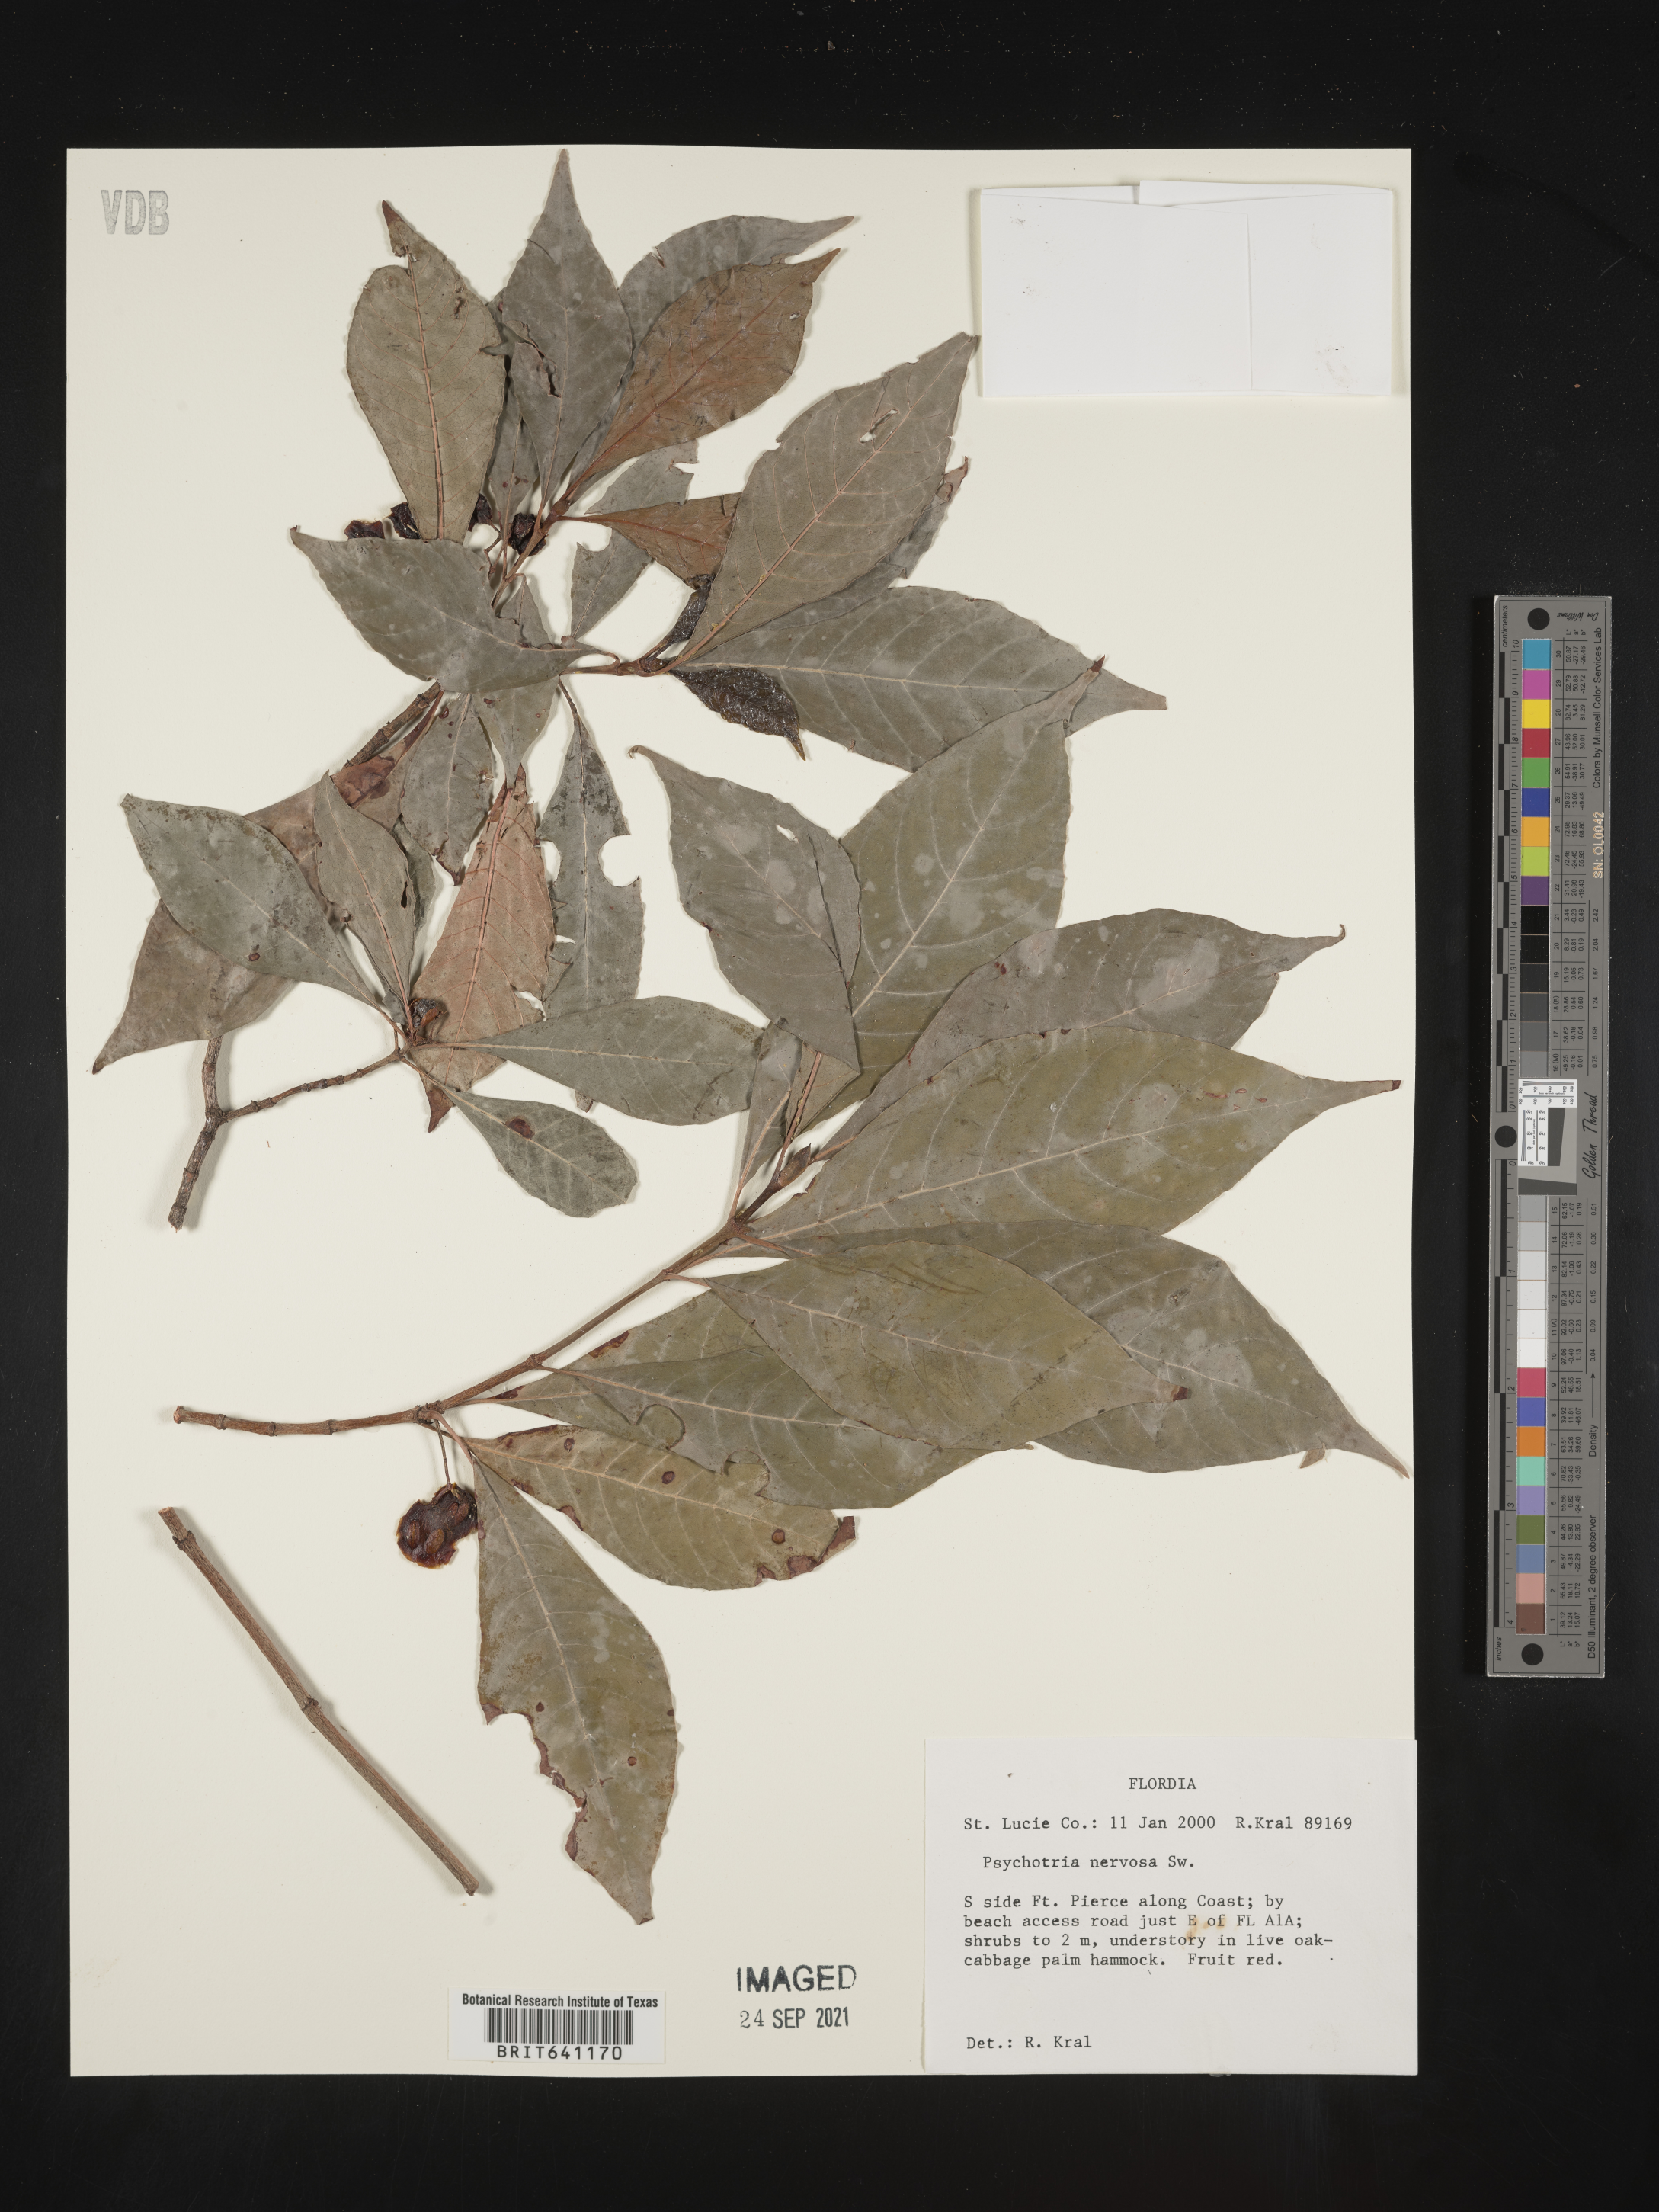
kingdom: Plantae
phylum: Tracheophyta
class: Magnoliopsida
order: Gentianales
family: Rubiaceae
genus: Psychotria
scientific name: Psychotria nervosa
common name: Bastard cankerberry
